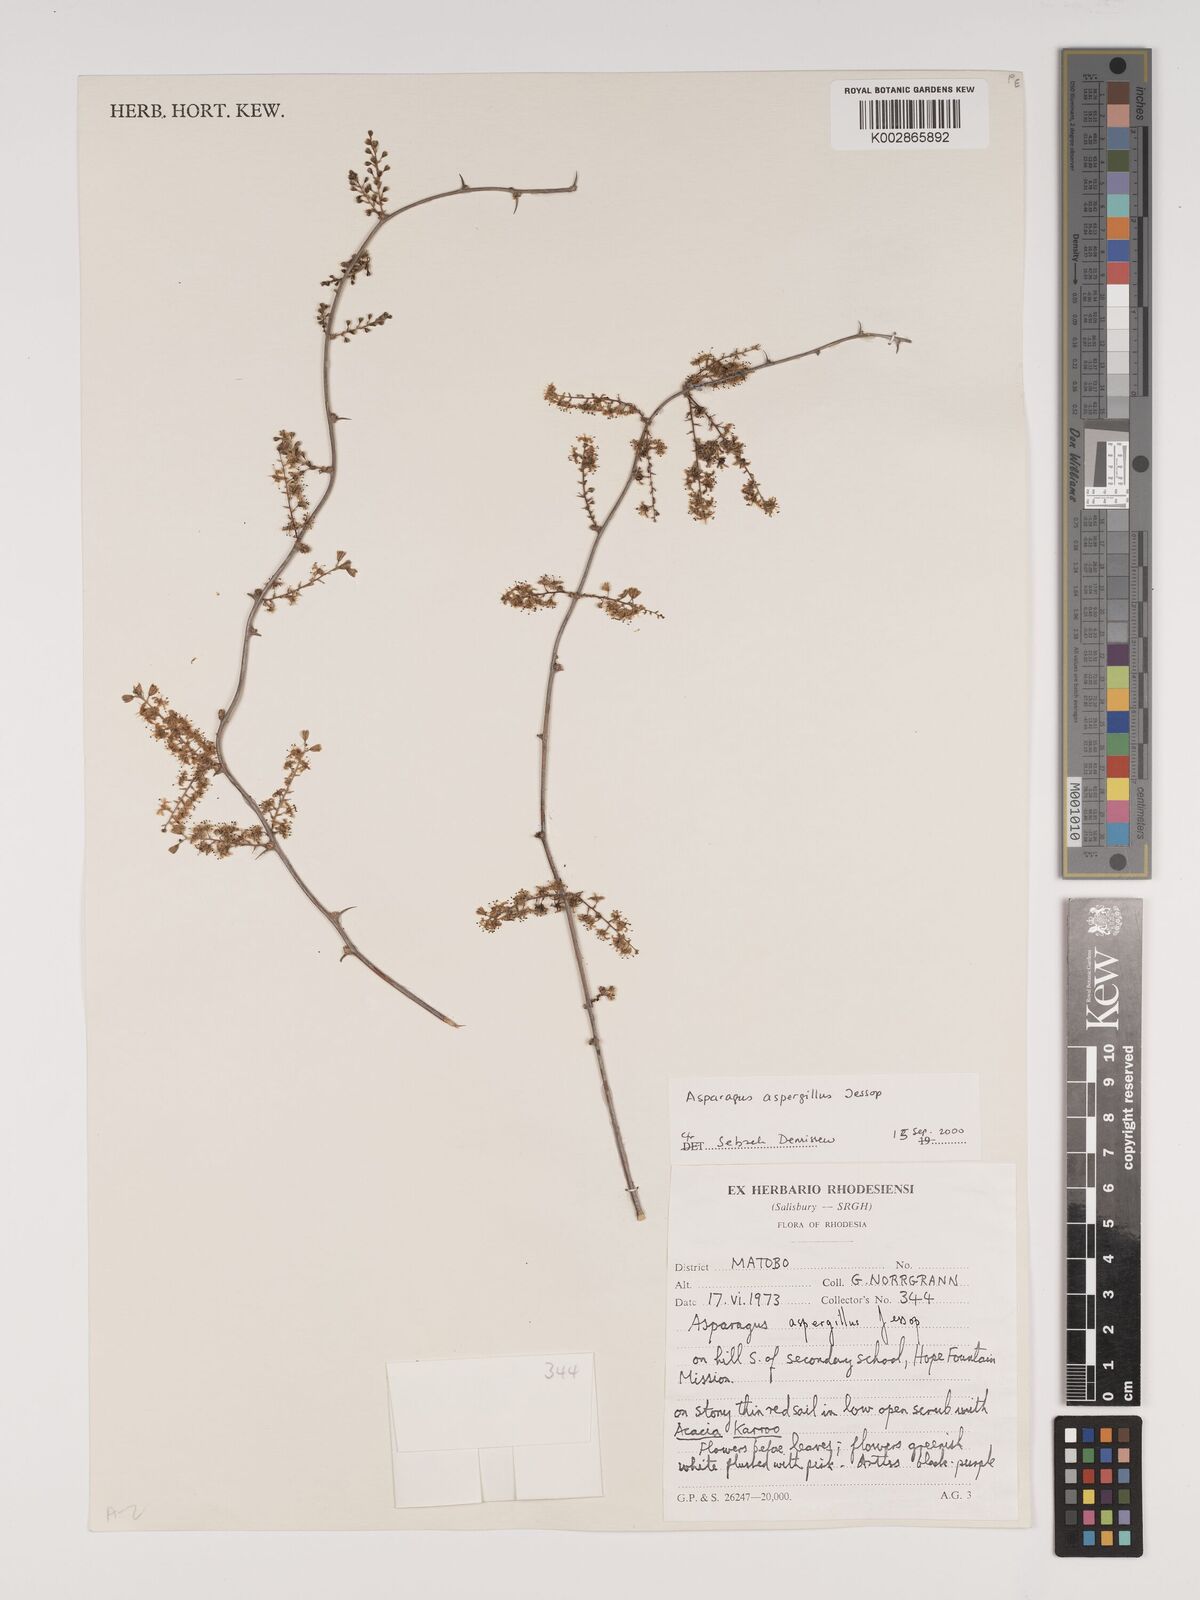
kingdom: Plantae
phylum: Tracheophyta
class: Liliopsida
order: Asparagales
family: Asparagaceae
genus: Asparagus
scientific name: Asparagus aspergillus
